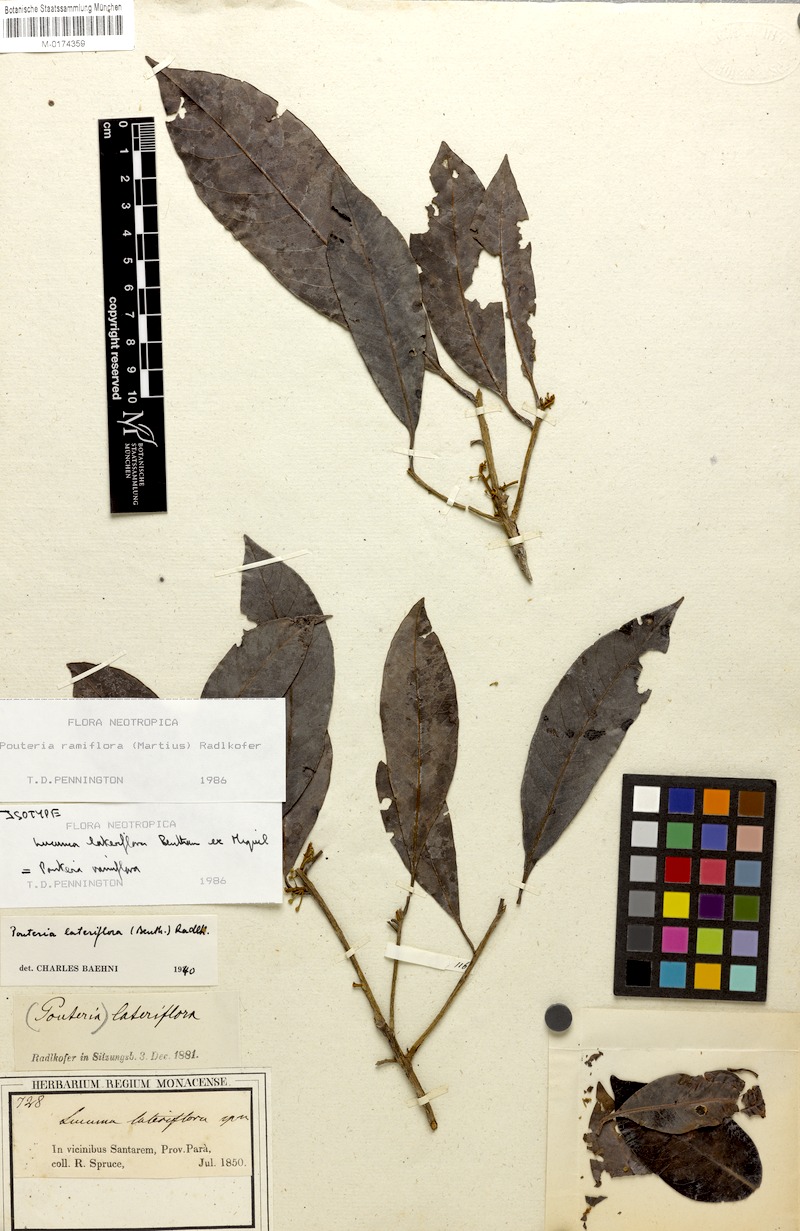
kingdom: Plantae
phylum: Tracheophyta
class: Magnoliopsida
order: Ericales
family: Sapotaceae
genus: Pouteria
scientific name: Pouteria ramiflora
